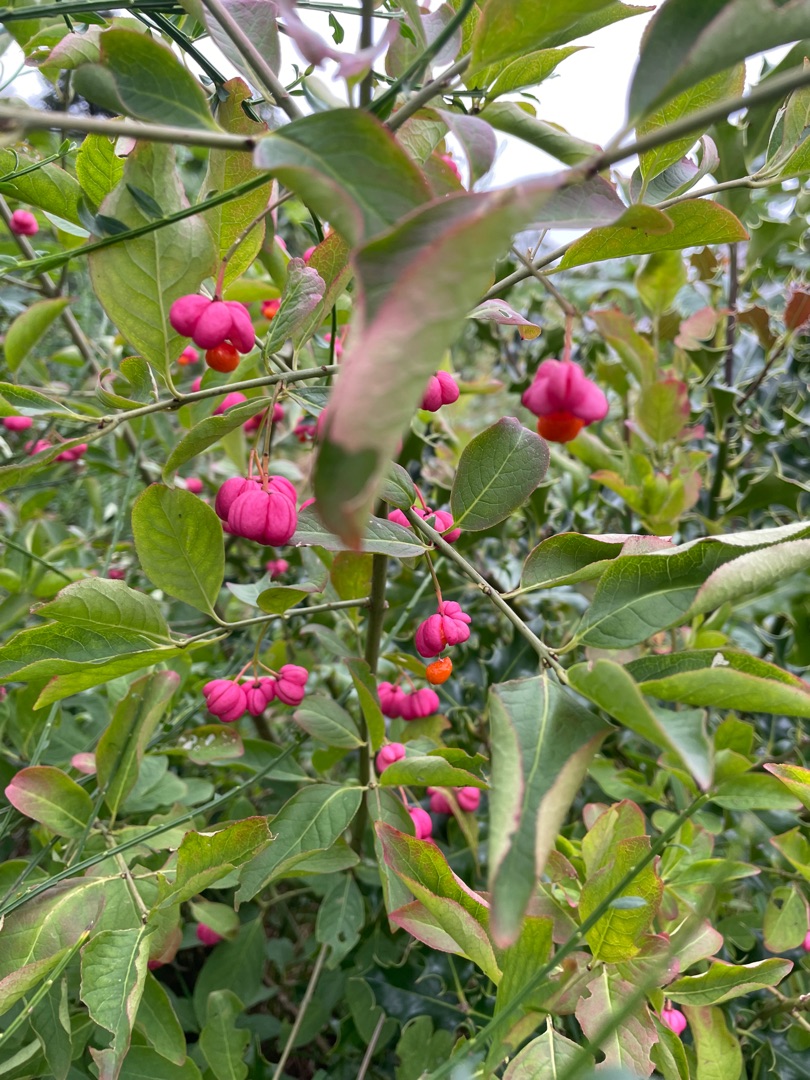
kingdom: Plantae
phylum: Tracheophyta
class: Magnoliopsida
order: Celastrales
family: Celastraceae
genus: Euonymus
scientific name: Euonymus europaeus
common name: Benved
